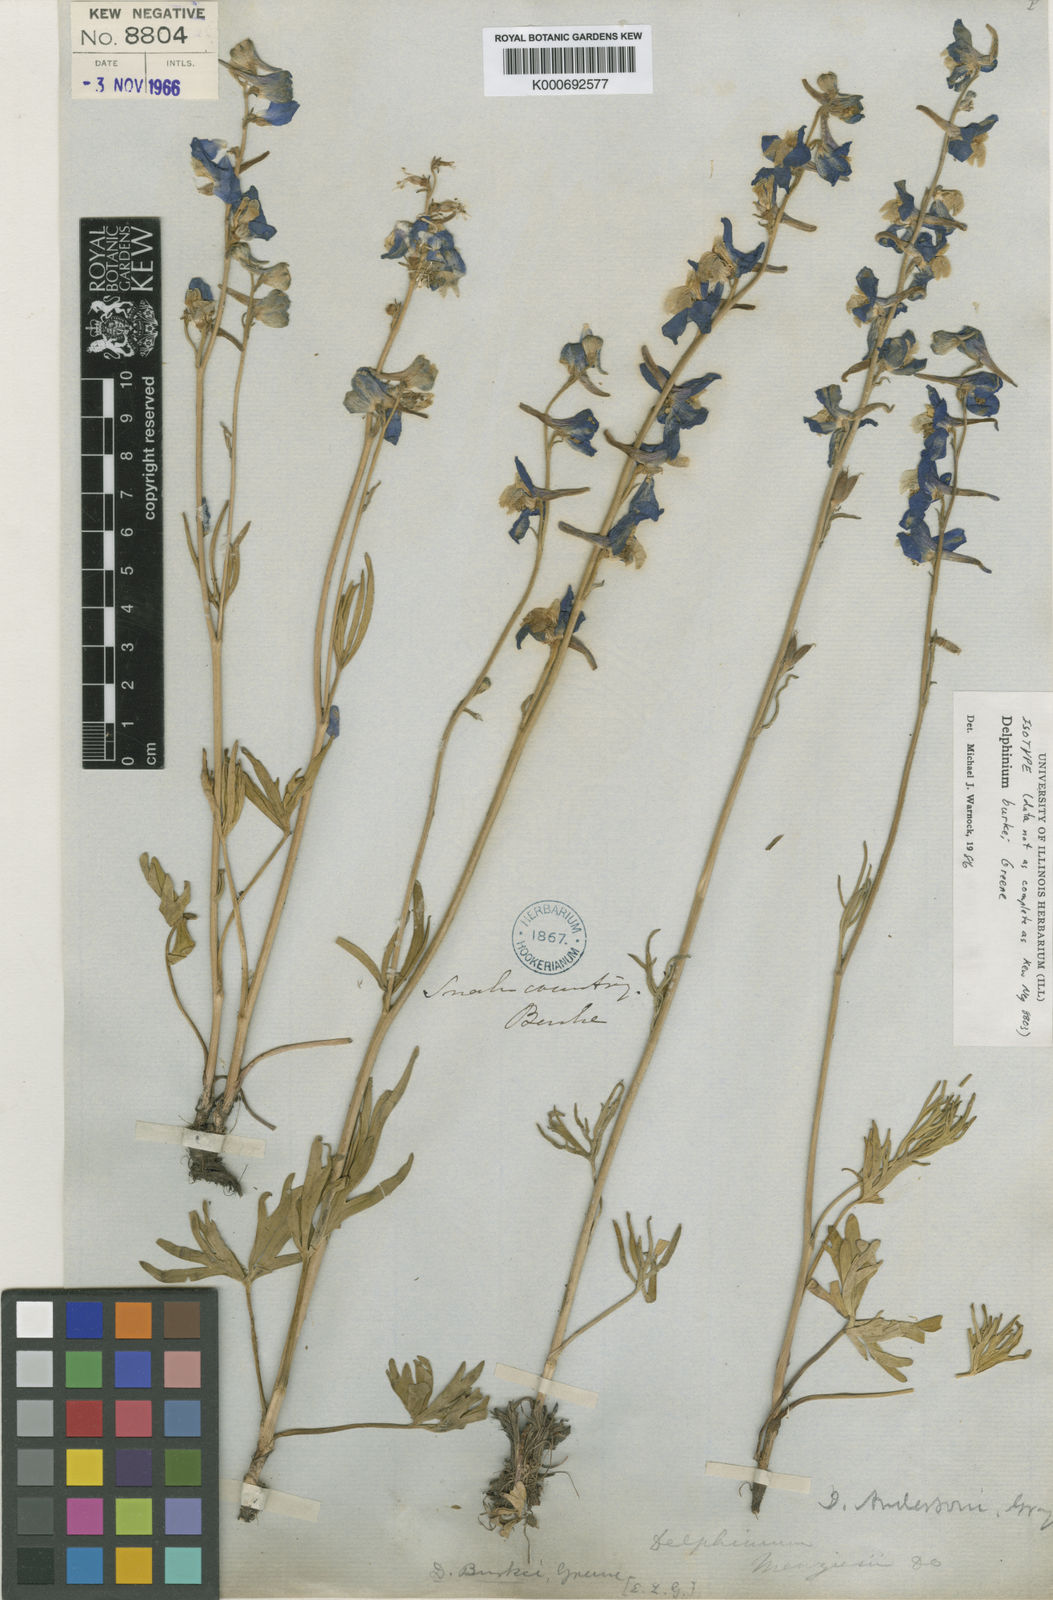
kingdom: Plantae
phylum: Tracheophyta
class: Magnoliopsida
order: Ranunculales
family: Ranunculaceae
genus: Delphinium
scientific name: Delphinium burkei
